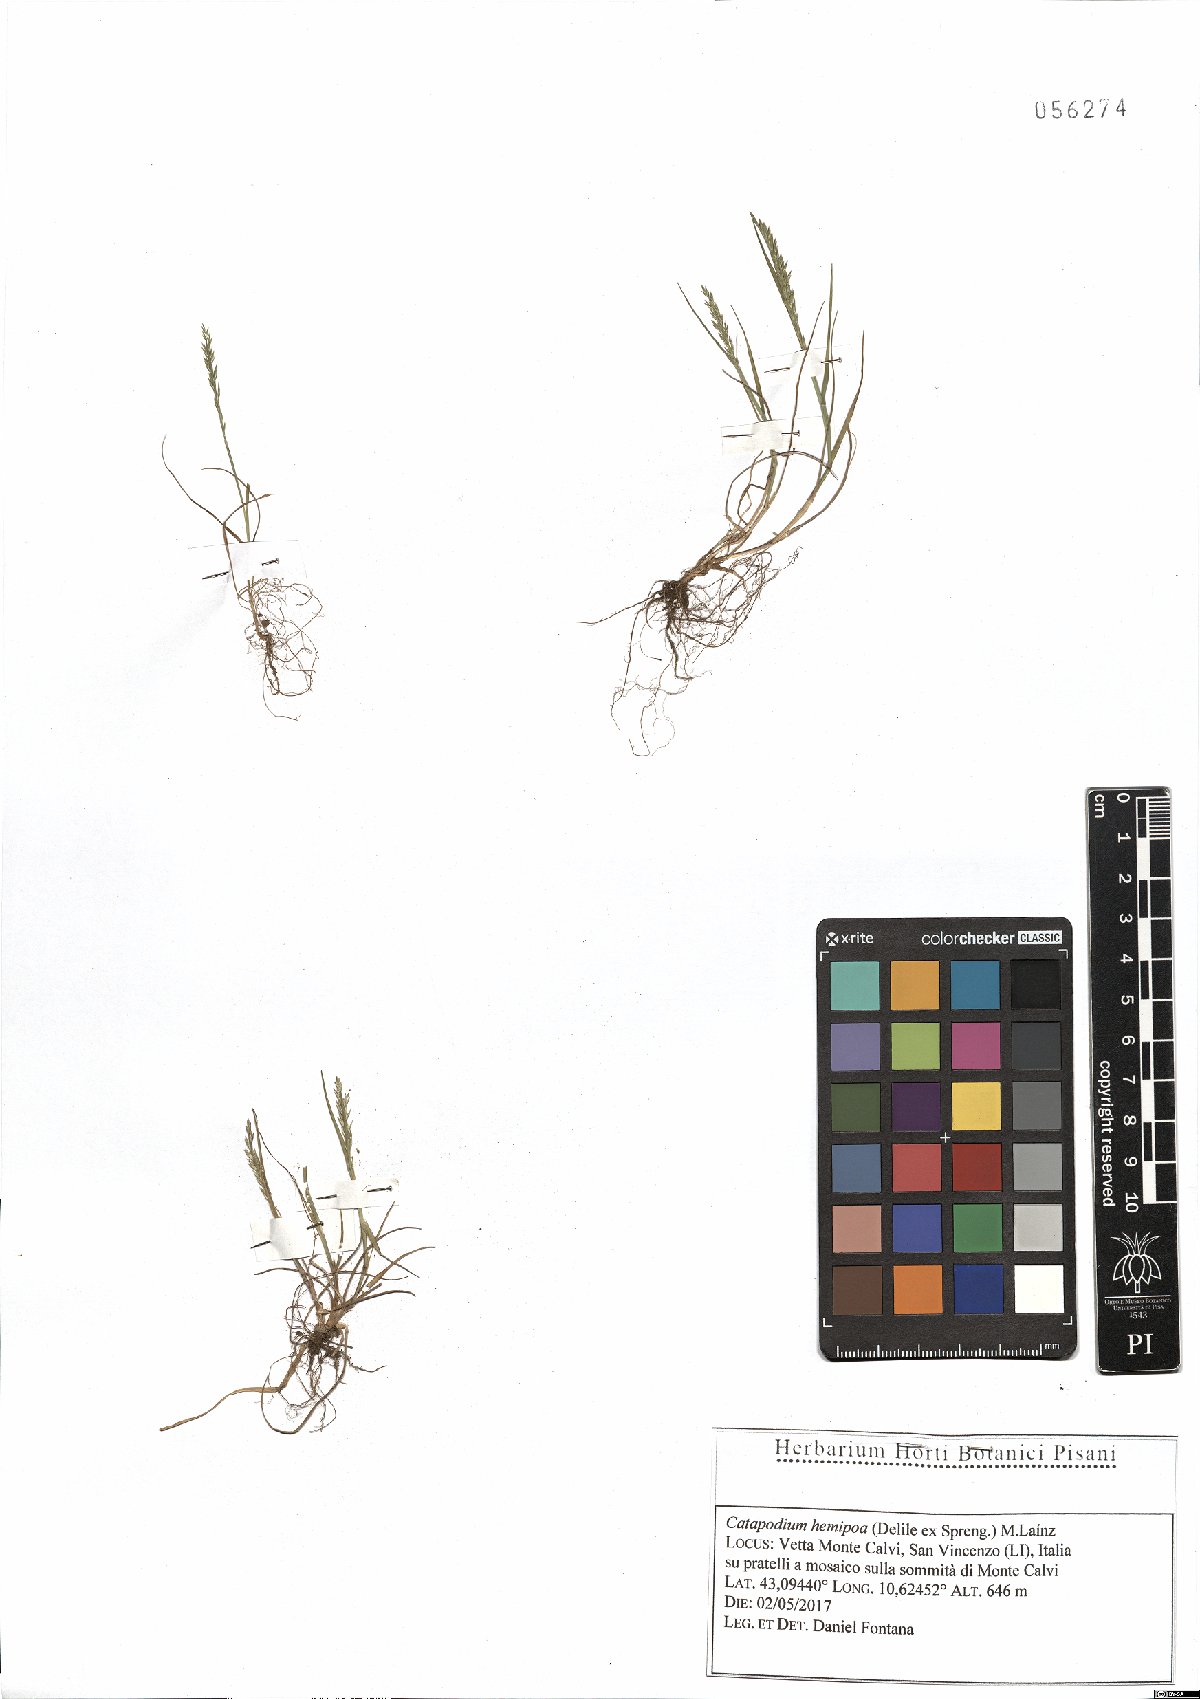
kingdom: Plantae
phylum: Tracheophyta
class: Liliopsida
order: Poales
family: Poaceae
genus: Catapodium
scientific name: Catapodium hemipoa
